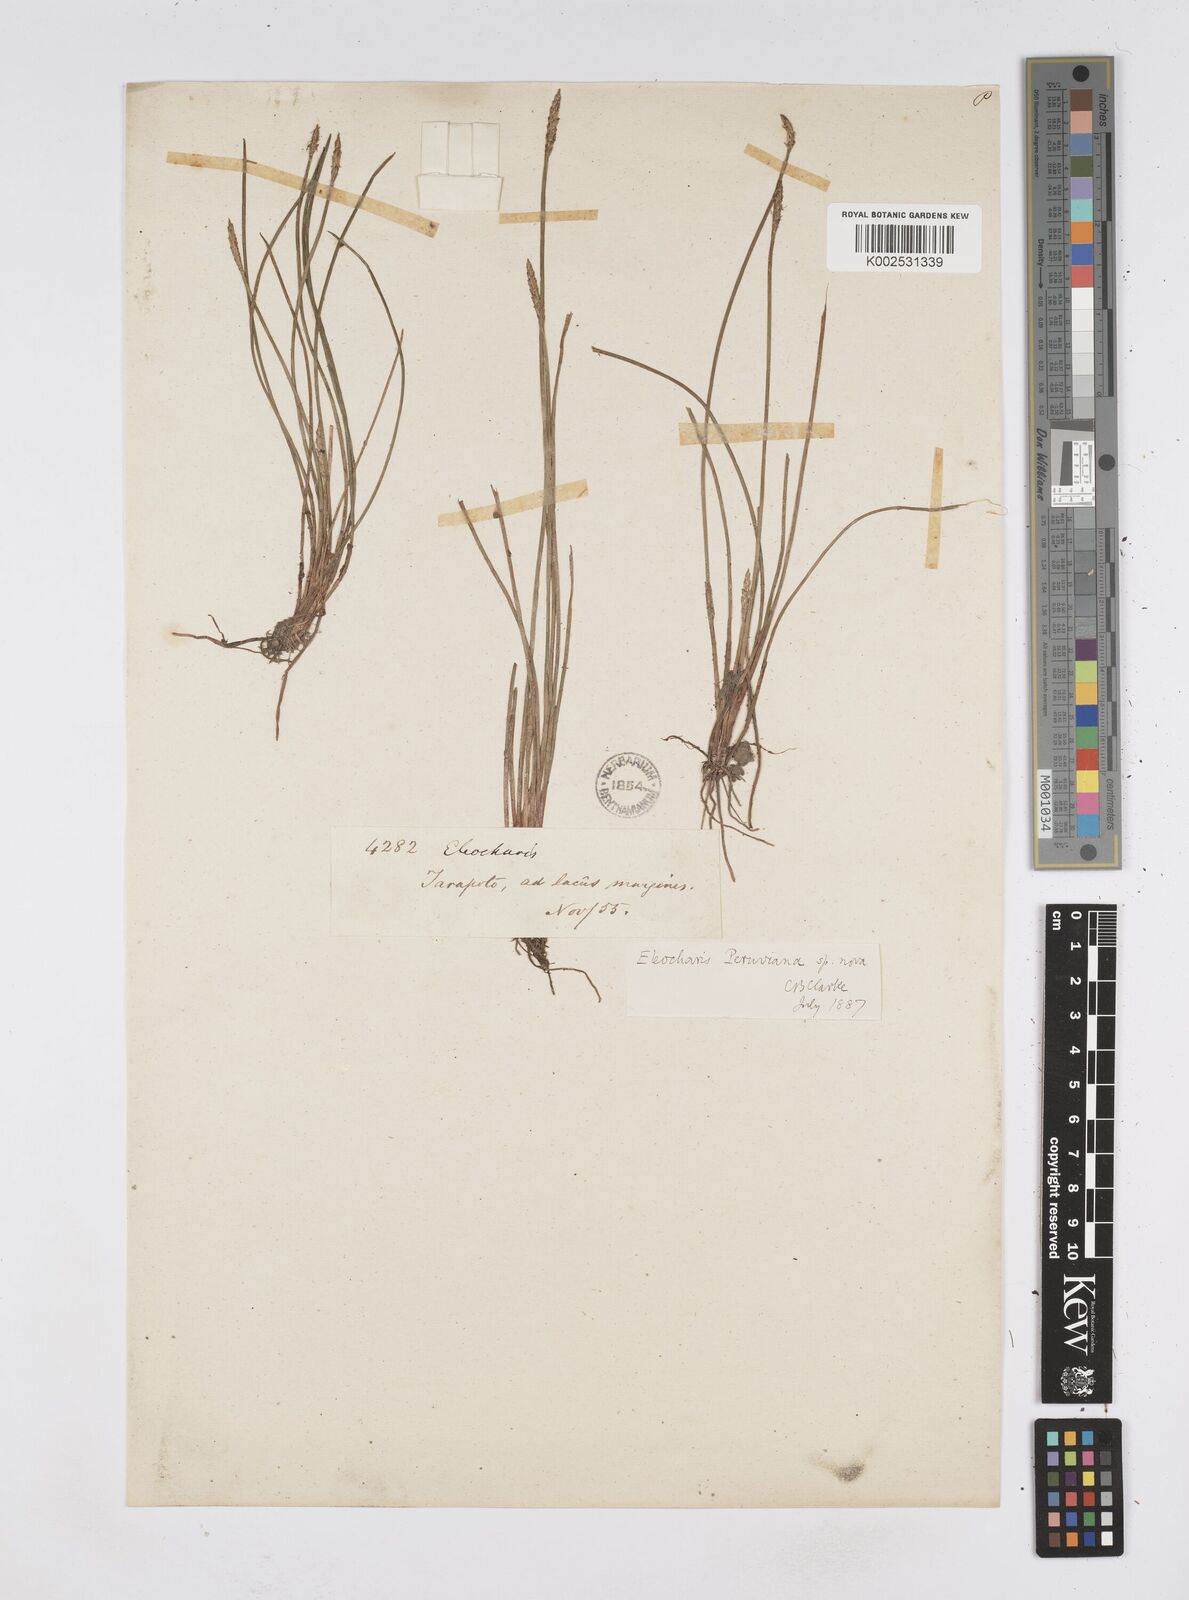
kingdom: Plantae
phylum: Tracheophyta
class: Liliopsida
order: Poales
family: Cyperaceae
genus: Eleocharis
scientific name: Eleocharis
